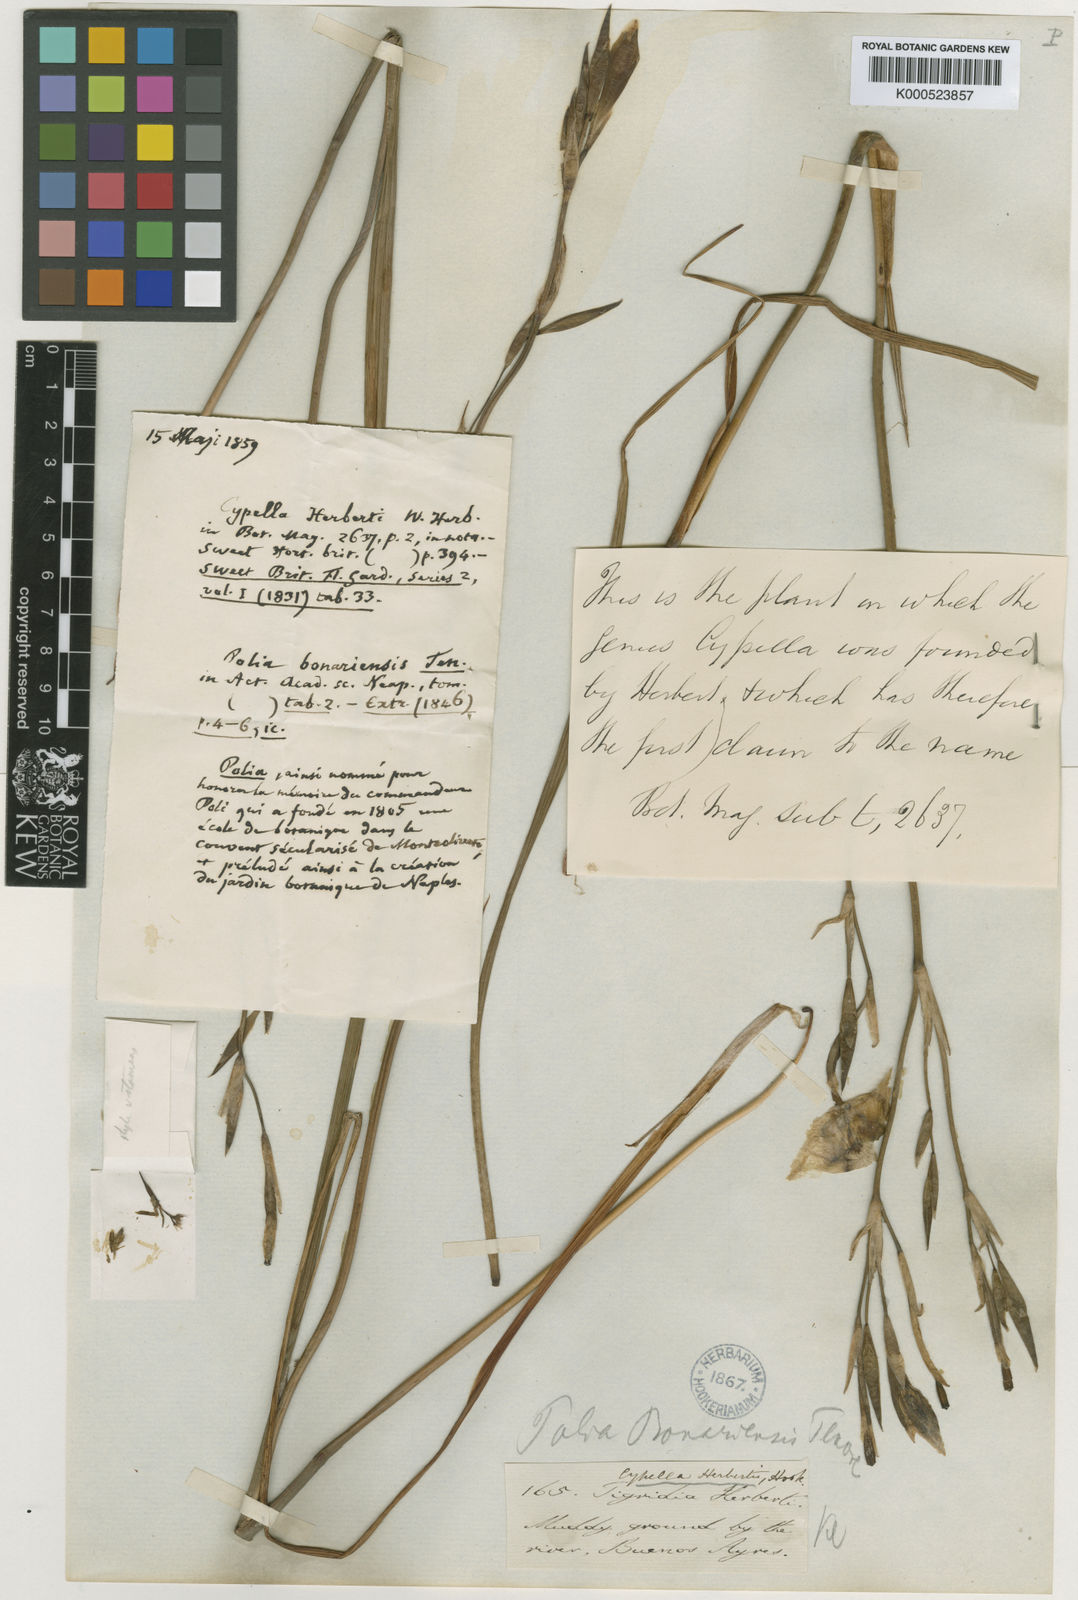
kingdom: Plantae
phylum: Tracheophyta
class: Liliopsida
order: Asparagales
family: Iridaceae
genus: Cypella
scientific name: Cypella herbertii
